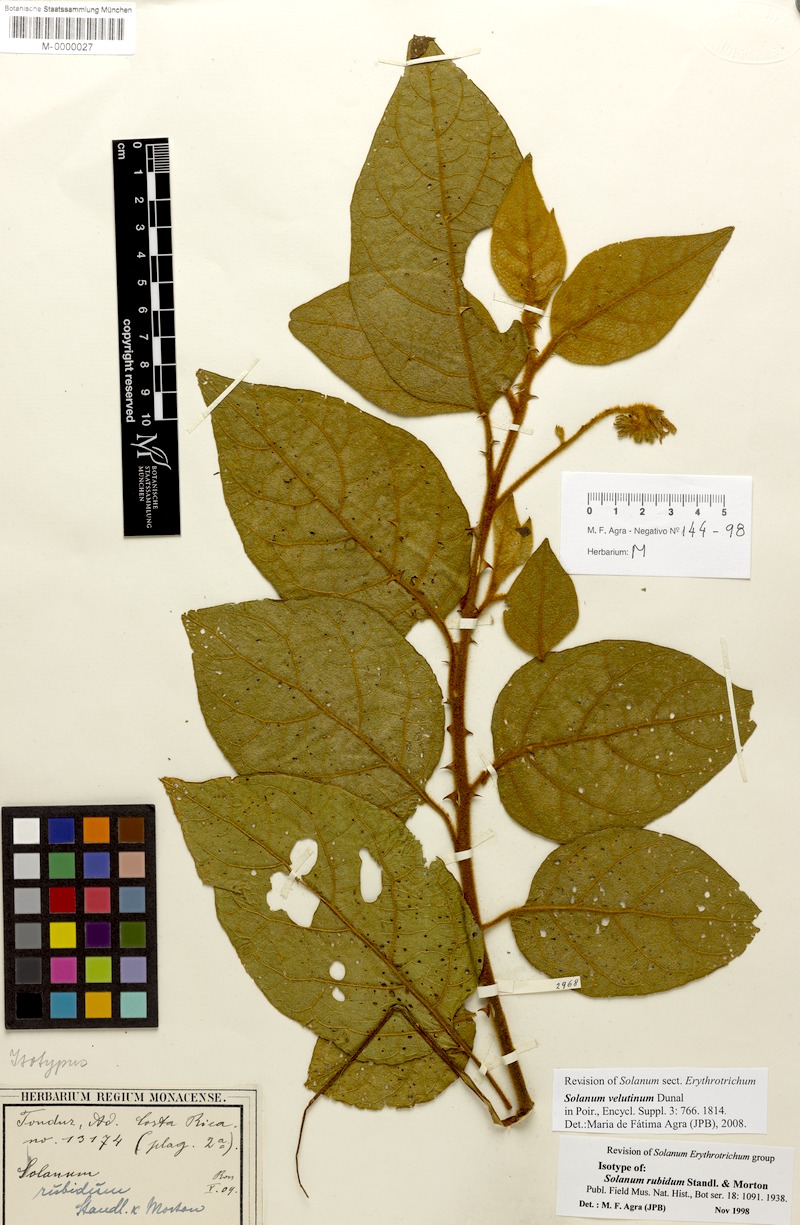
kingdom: Plantae
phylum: Tracheophyta
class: Magnoliopsida
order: Solanales
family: Solanaceae
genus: Solanum
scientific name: Solanum velutinum
